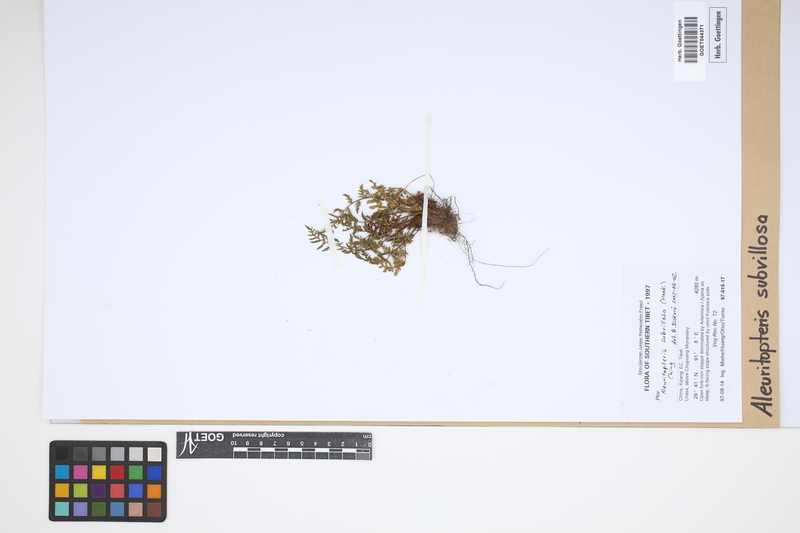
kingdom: Plantae
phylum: Tracheophyta
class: Polypodiopsida
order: Polypodiales
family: Pteridaceae
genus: Oeosporangium
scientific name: Oeosporangium subvillosum
